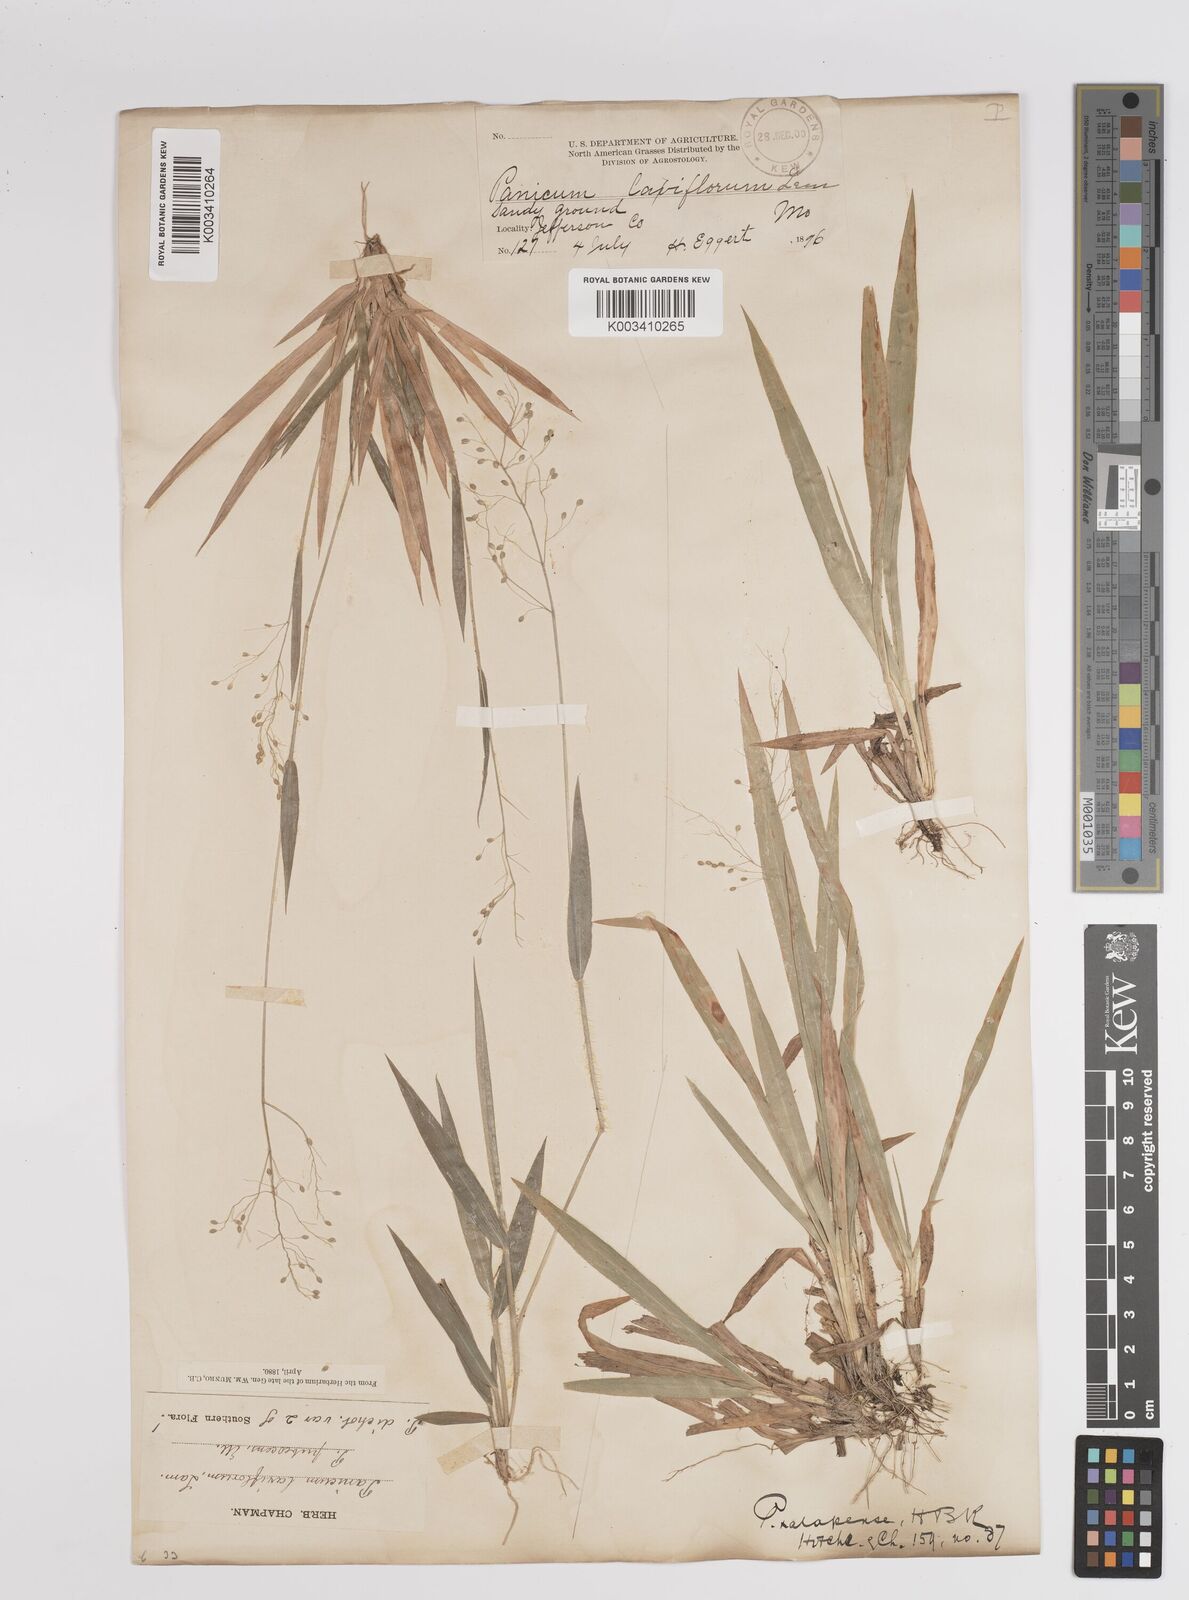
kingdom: Plantae
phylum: Tracheophyta
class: Liliopsida
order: Poales
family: Poaceae
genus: Dichanthelium
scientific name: Dichanthelium laxiflorum
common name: Soft-tuft panic grass
